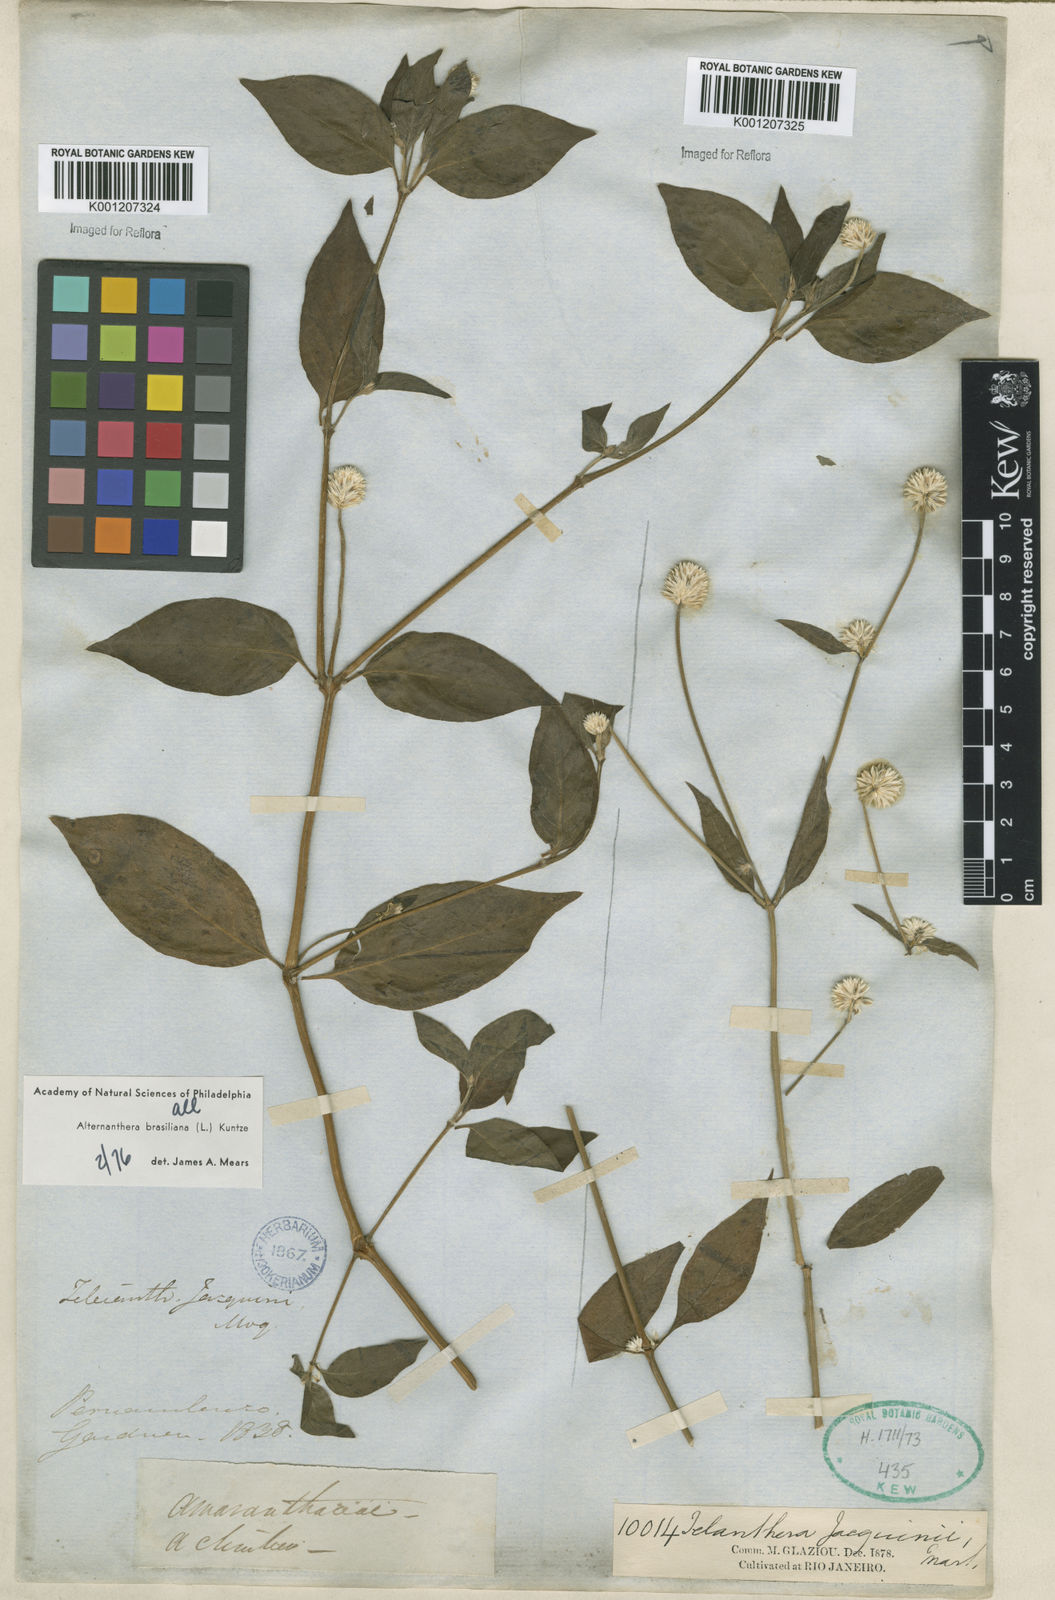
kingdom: Plantae
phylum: Tracheophyta
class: Magnoliopsida
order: Caryophyllales
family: Amaranthaceae
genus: Alternanthera
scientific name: Alternanthera brasiliana
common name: Brazilian joyweed
